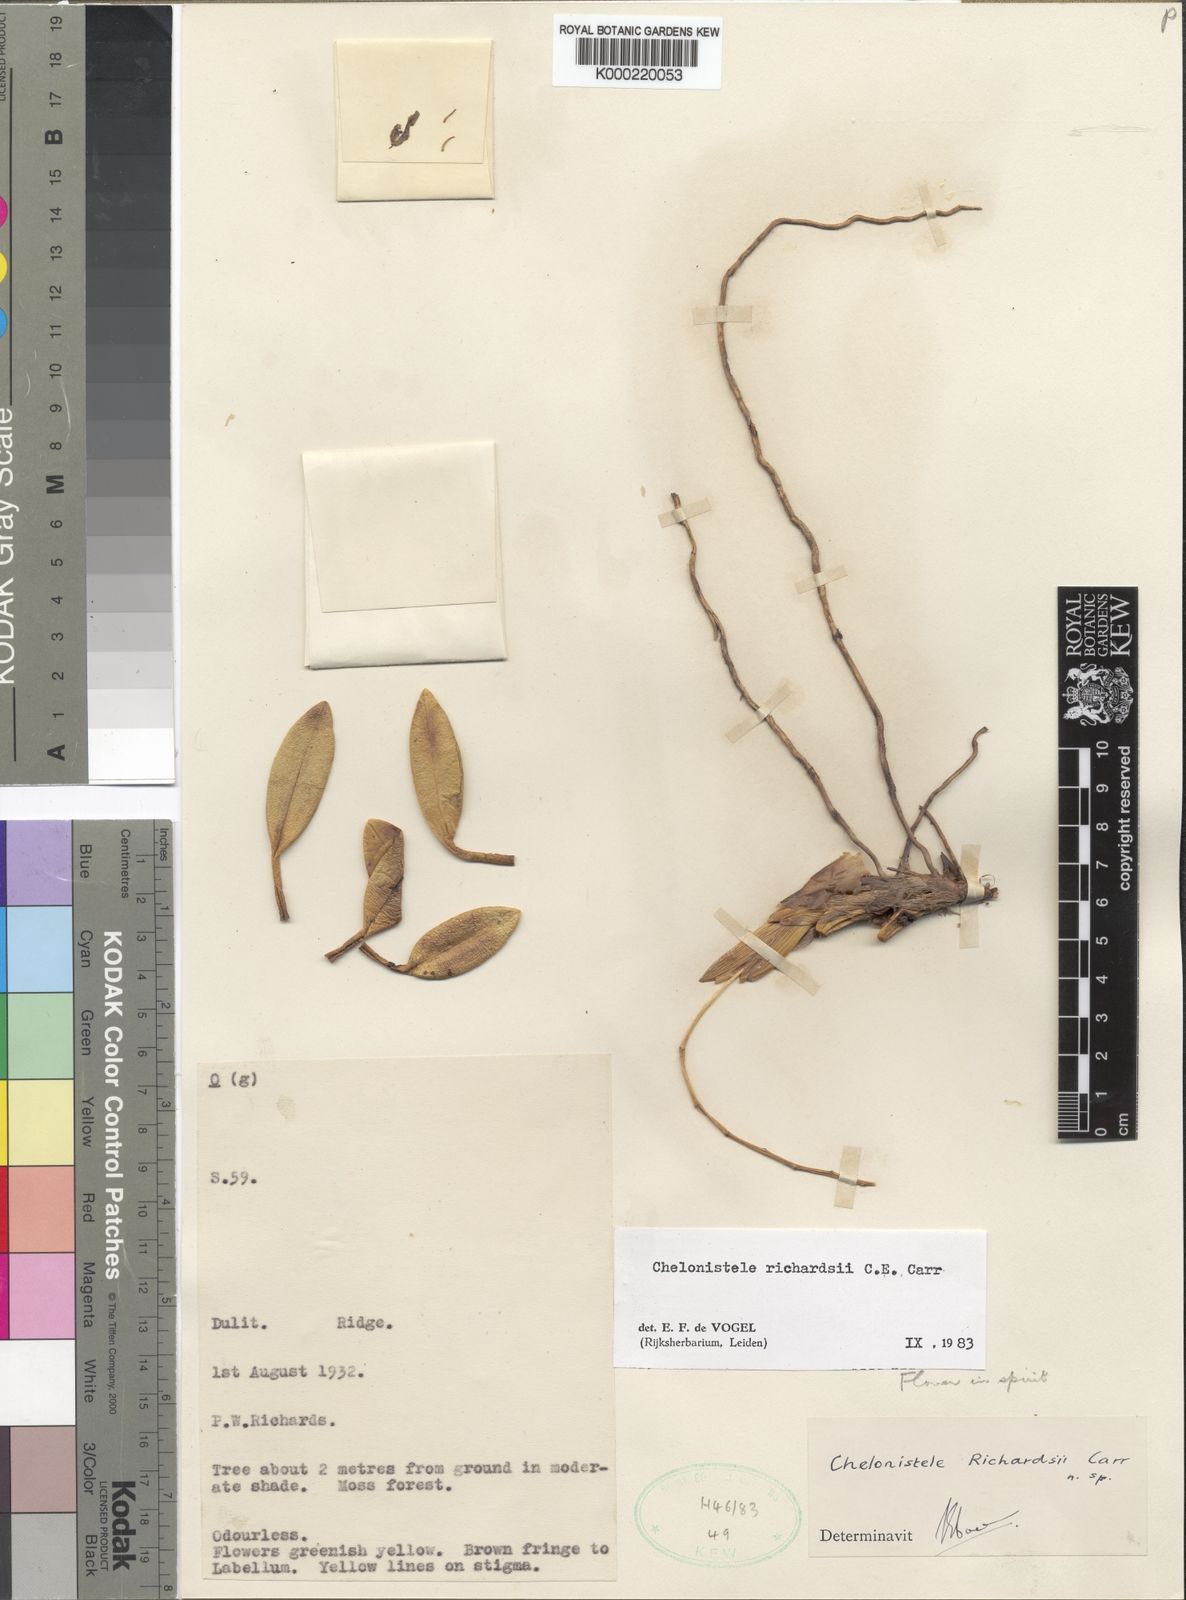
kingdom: Plantae
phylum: Tracheophyta
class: Liliopsida
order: Asparagales
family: Orchidaceae
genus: Coelogyne
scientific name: Coelogyne richardsii
